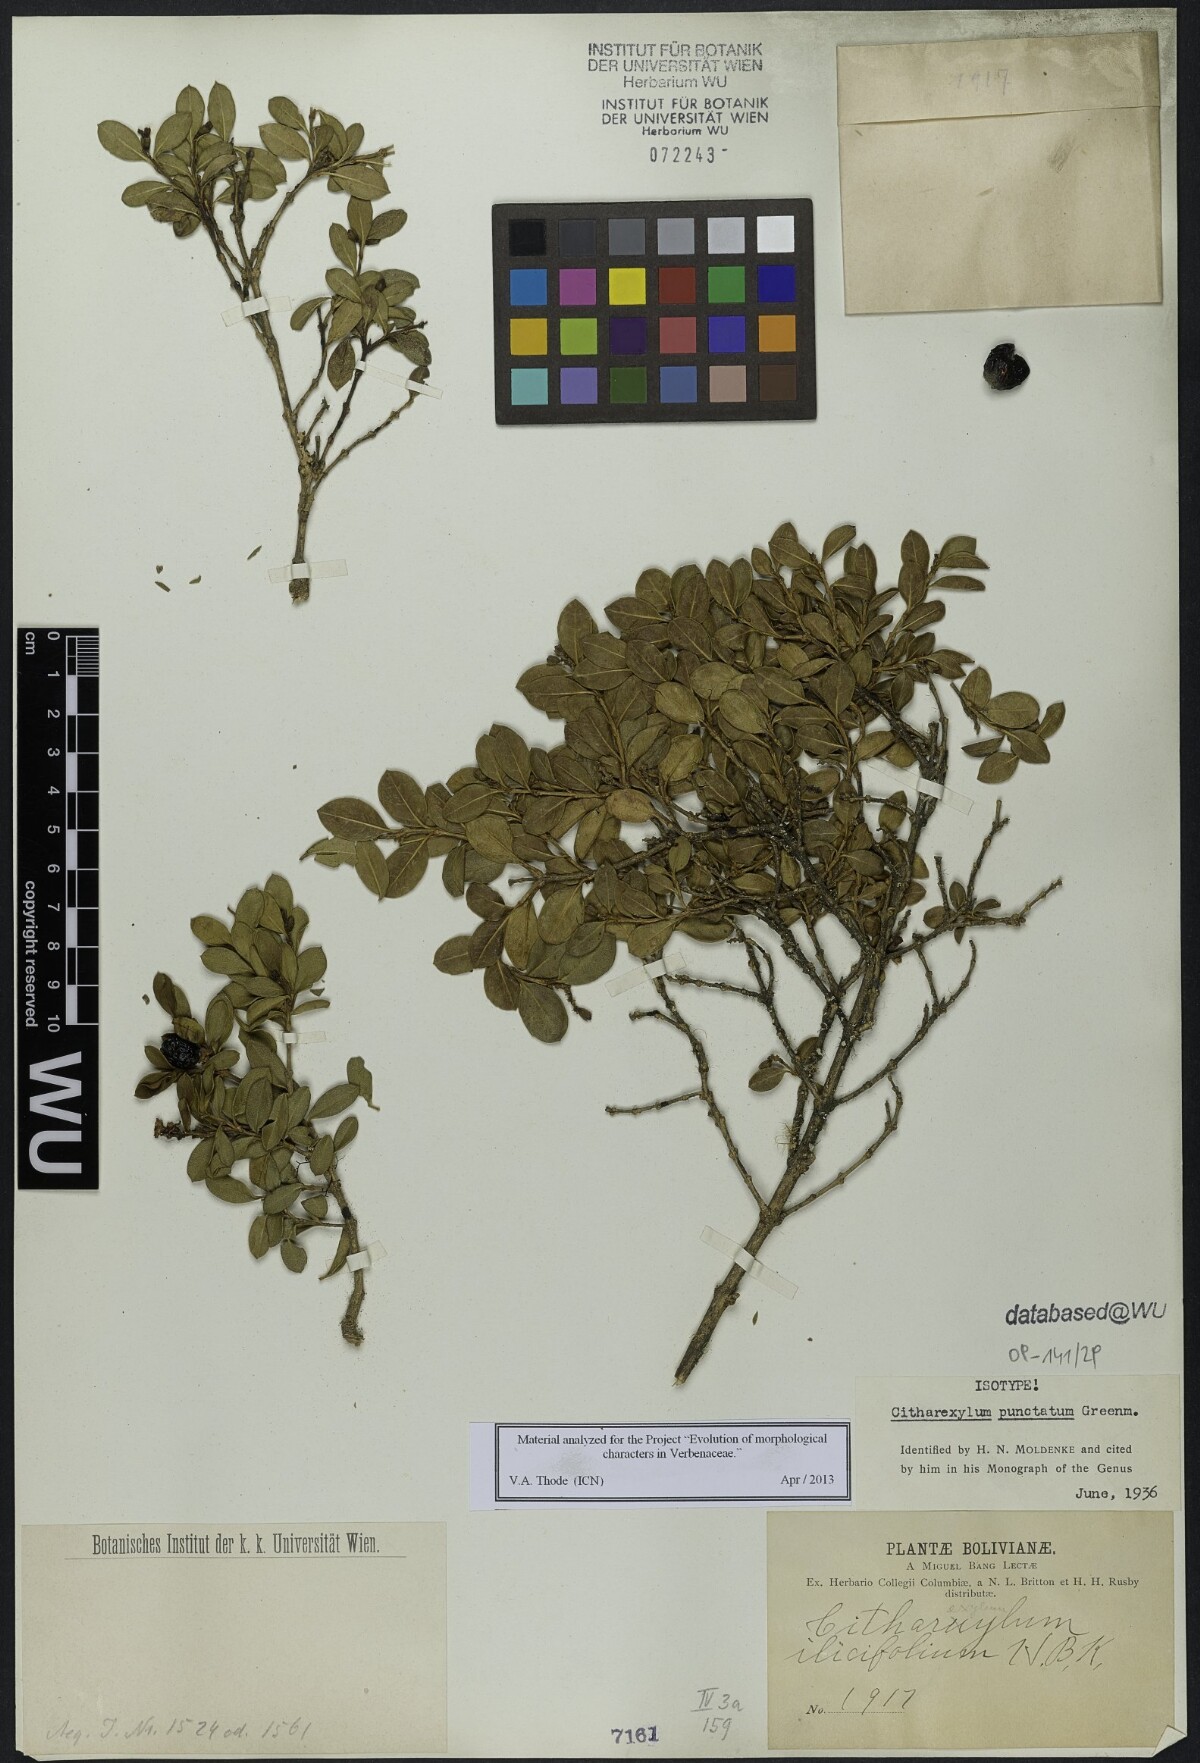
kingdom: Plantae
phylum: Tracheophyta
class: Magnoliopsida
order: Lamiales
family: Verbenaceae
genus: Citharexylum
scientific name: Citharexylum dentatum
